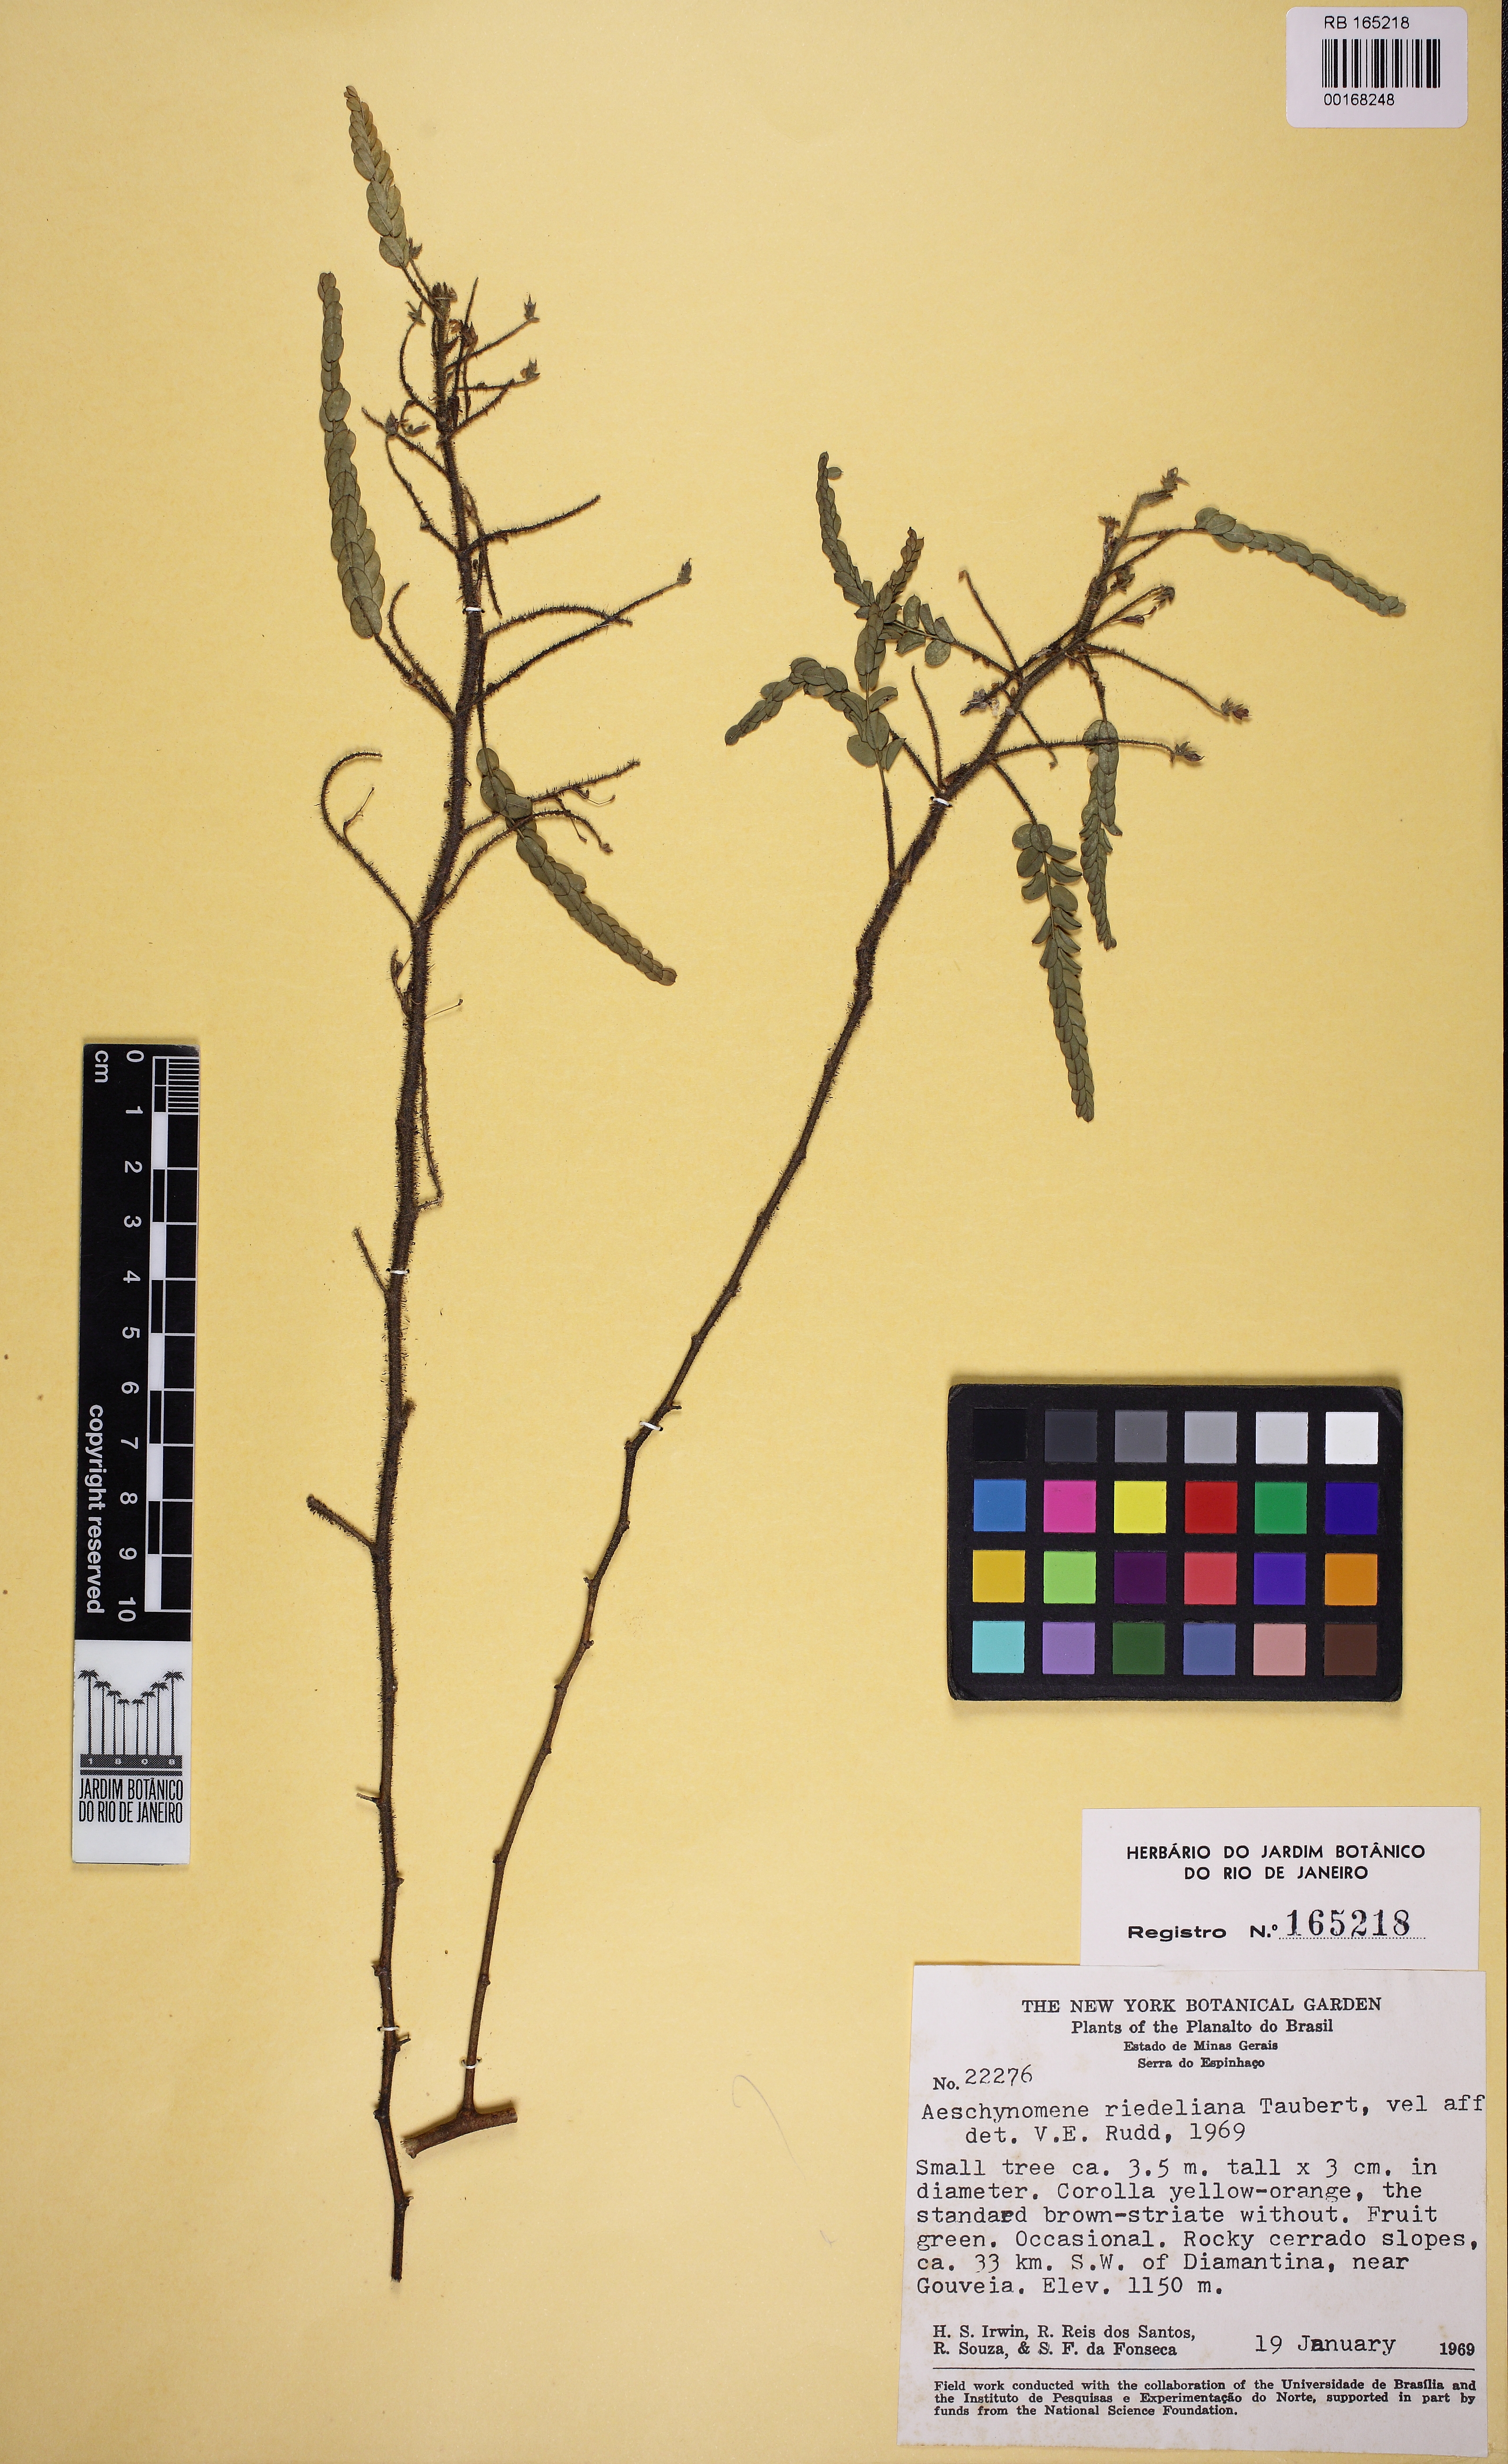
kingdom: Plantae
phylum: Tracheophyta
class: Magnoliopsida
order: Fabales
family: Fabaceae
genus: Ctenodon
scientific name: Ctenodon riedelianus
